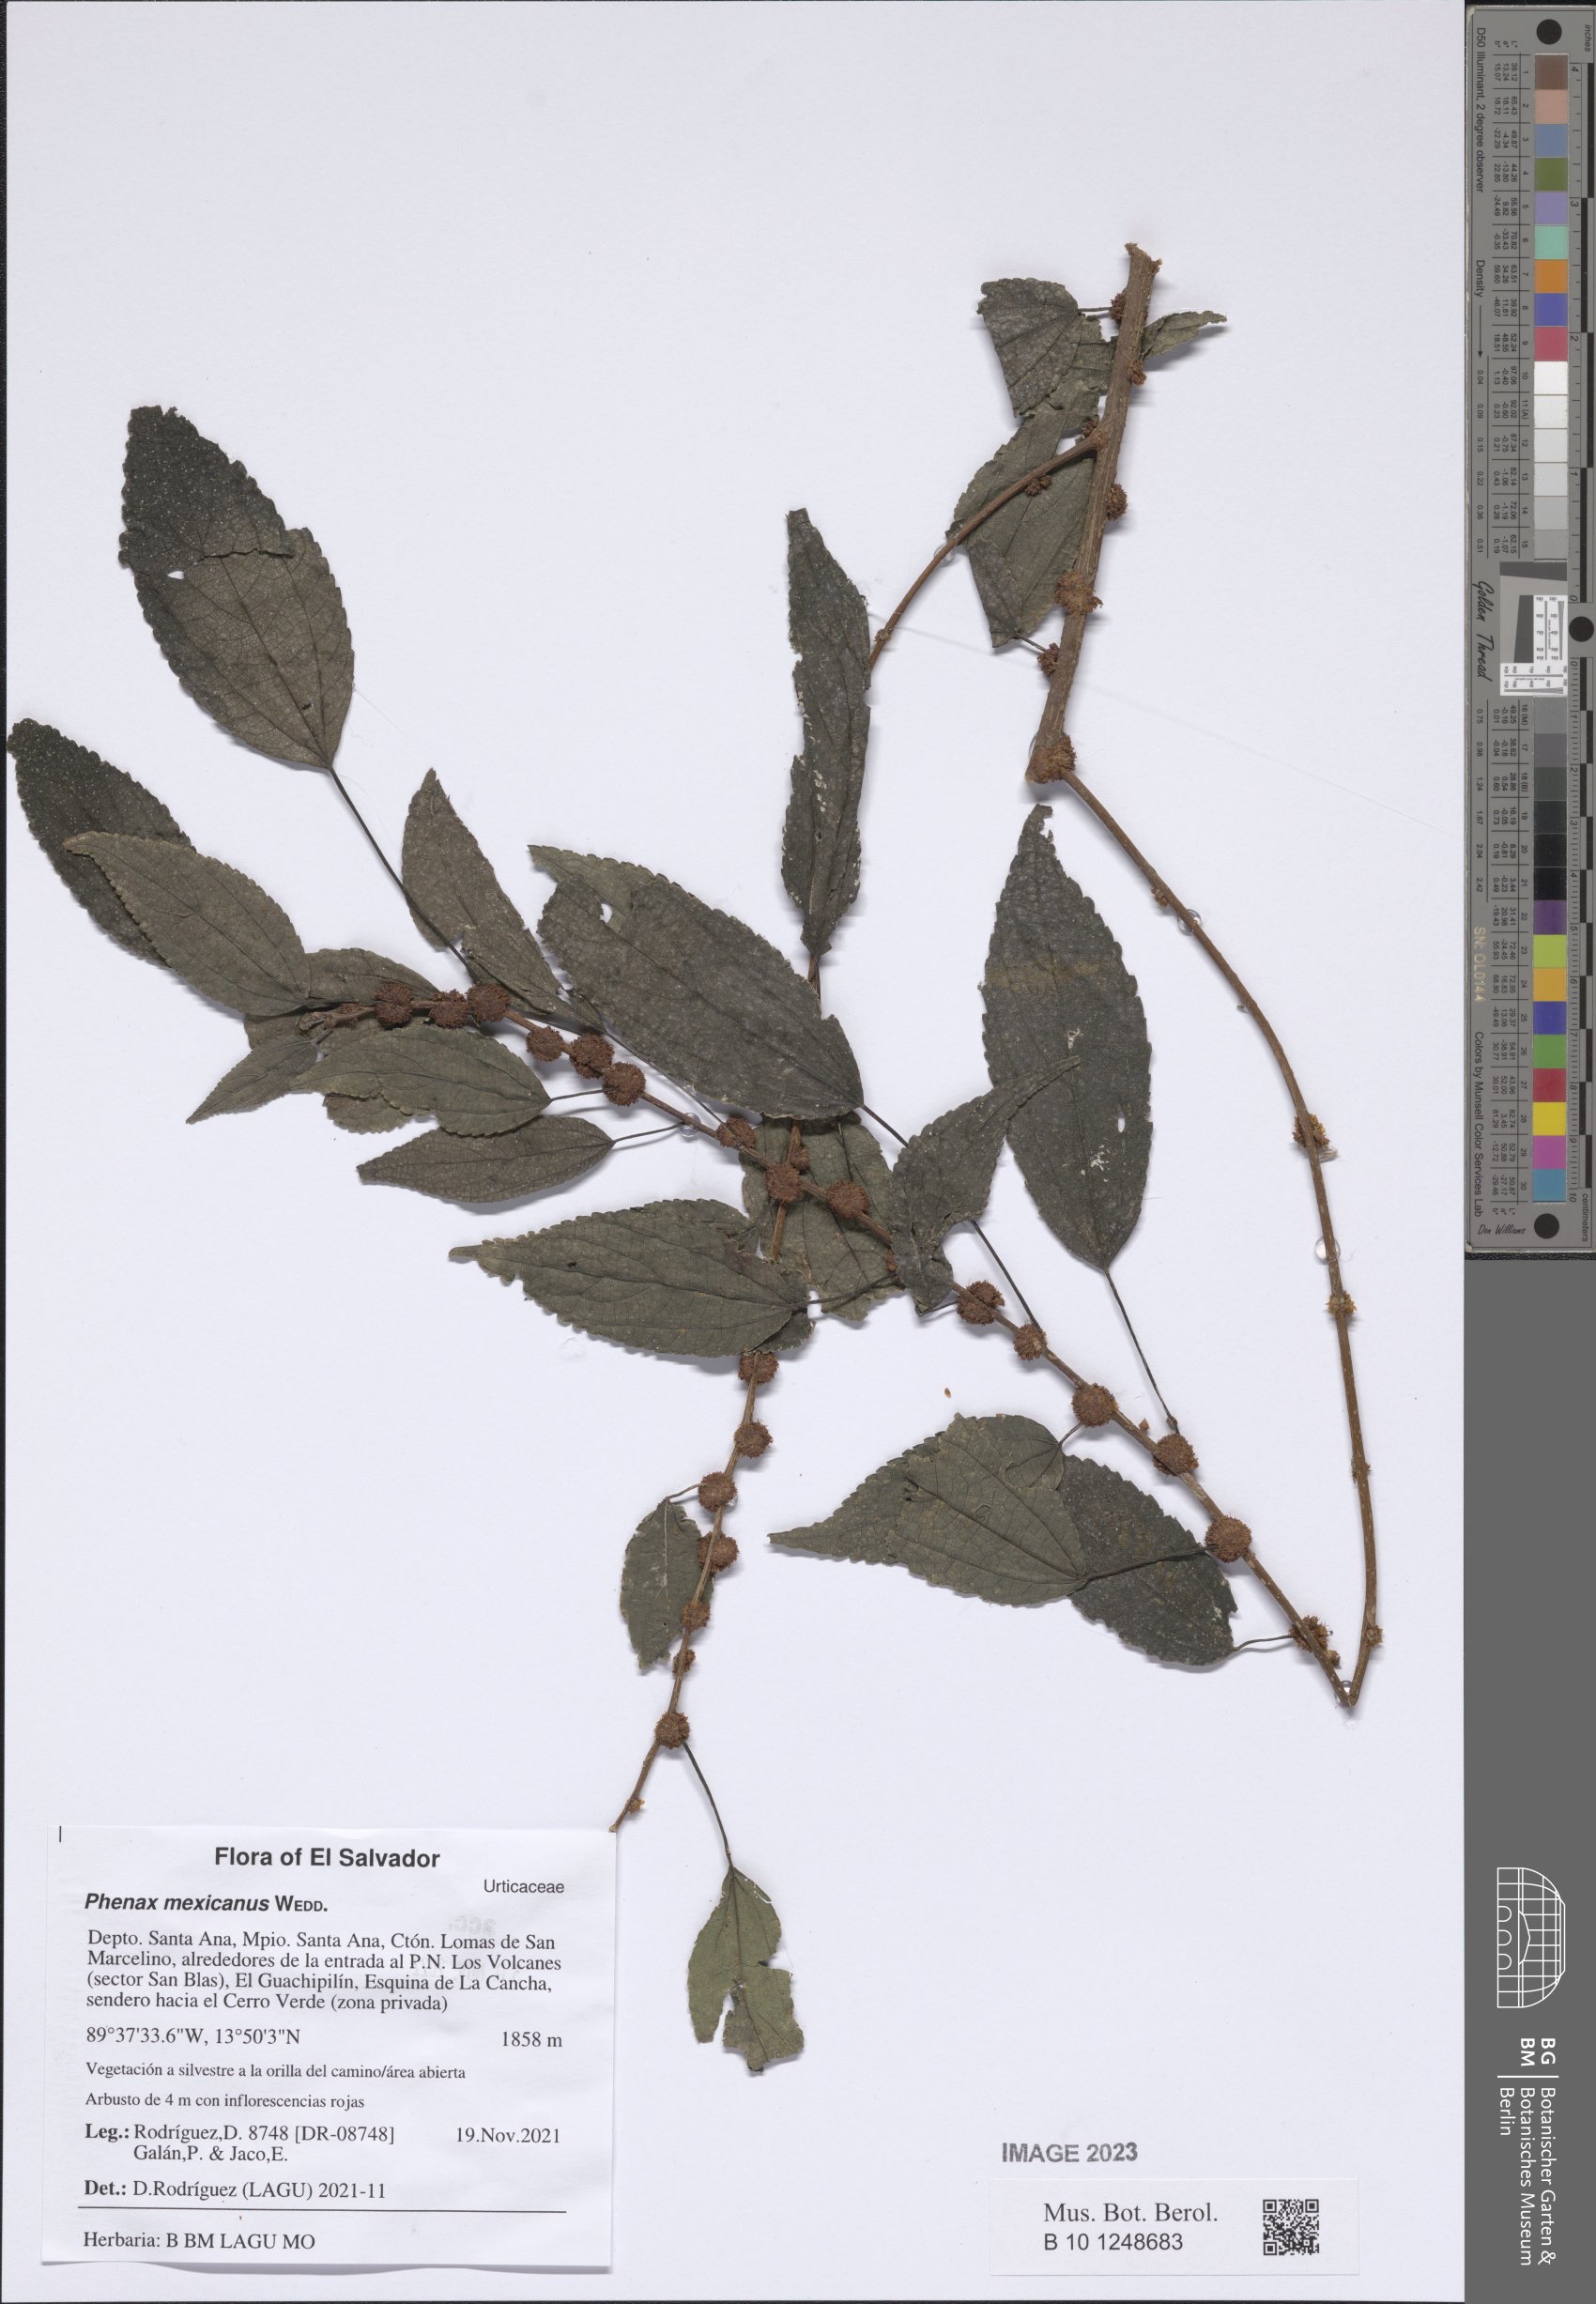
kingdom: Plantae
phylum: Tracheophyta
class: Magnoliopsida
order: Rosales
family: Urticaceae
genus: Phenax
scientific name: Phenax mexicanus
